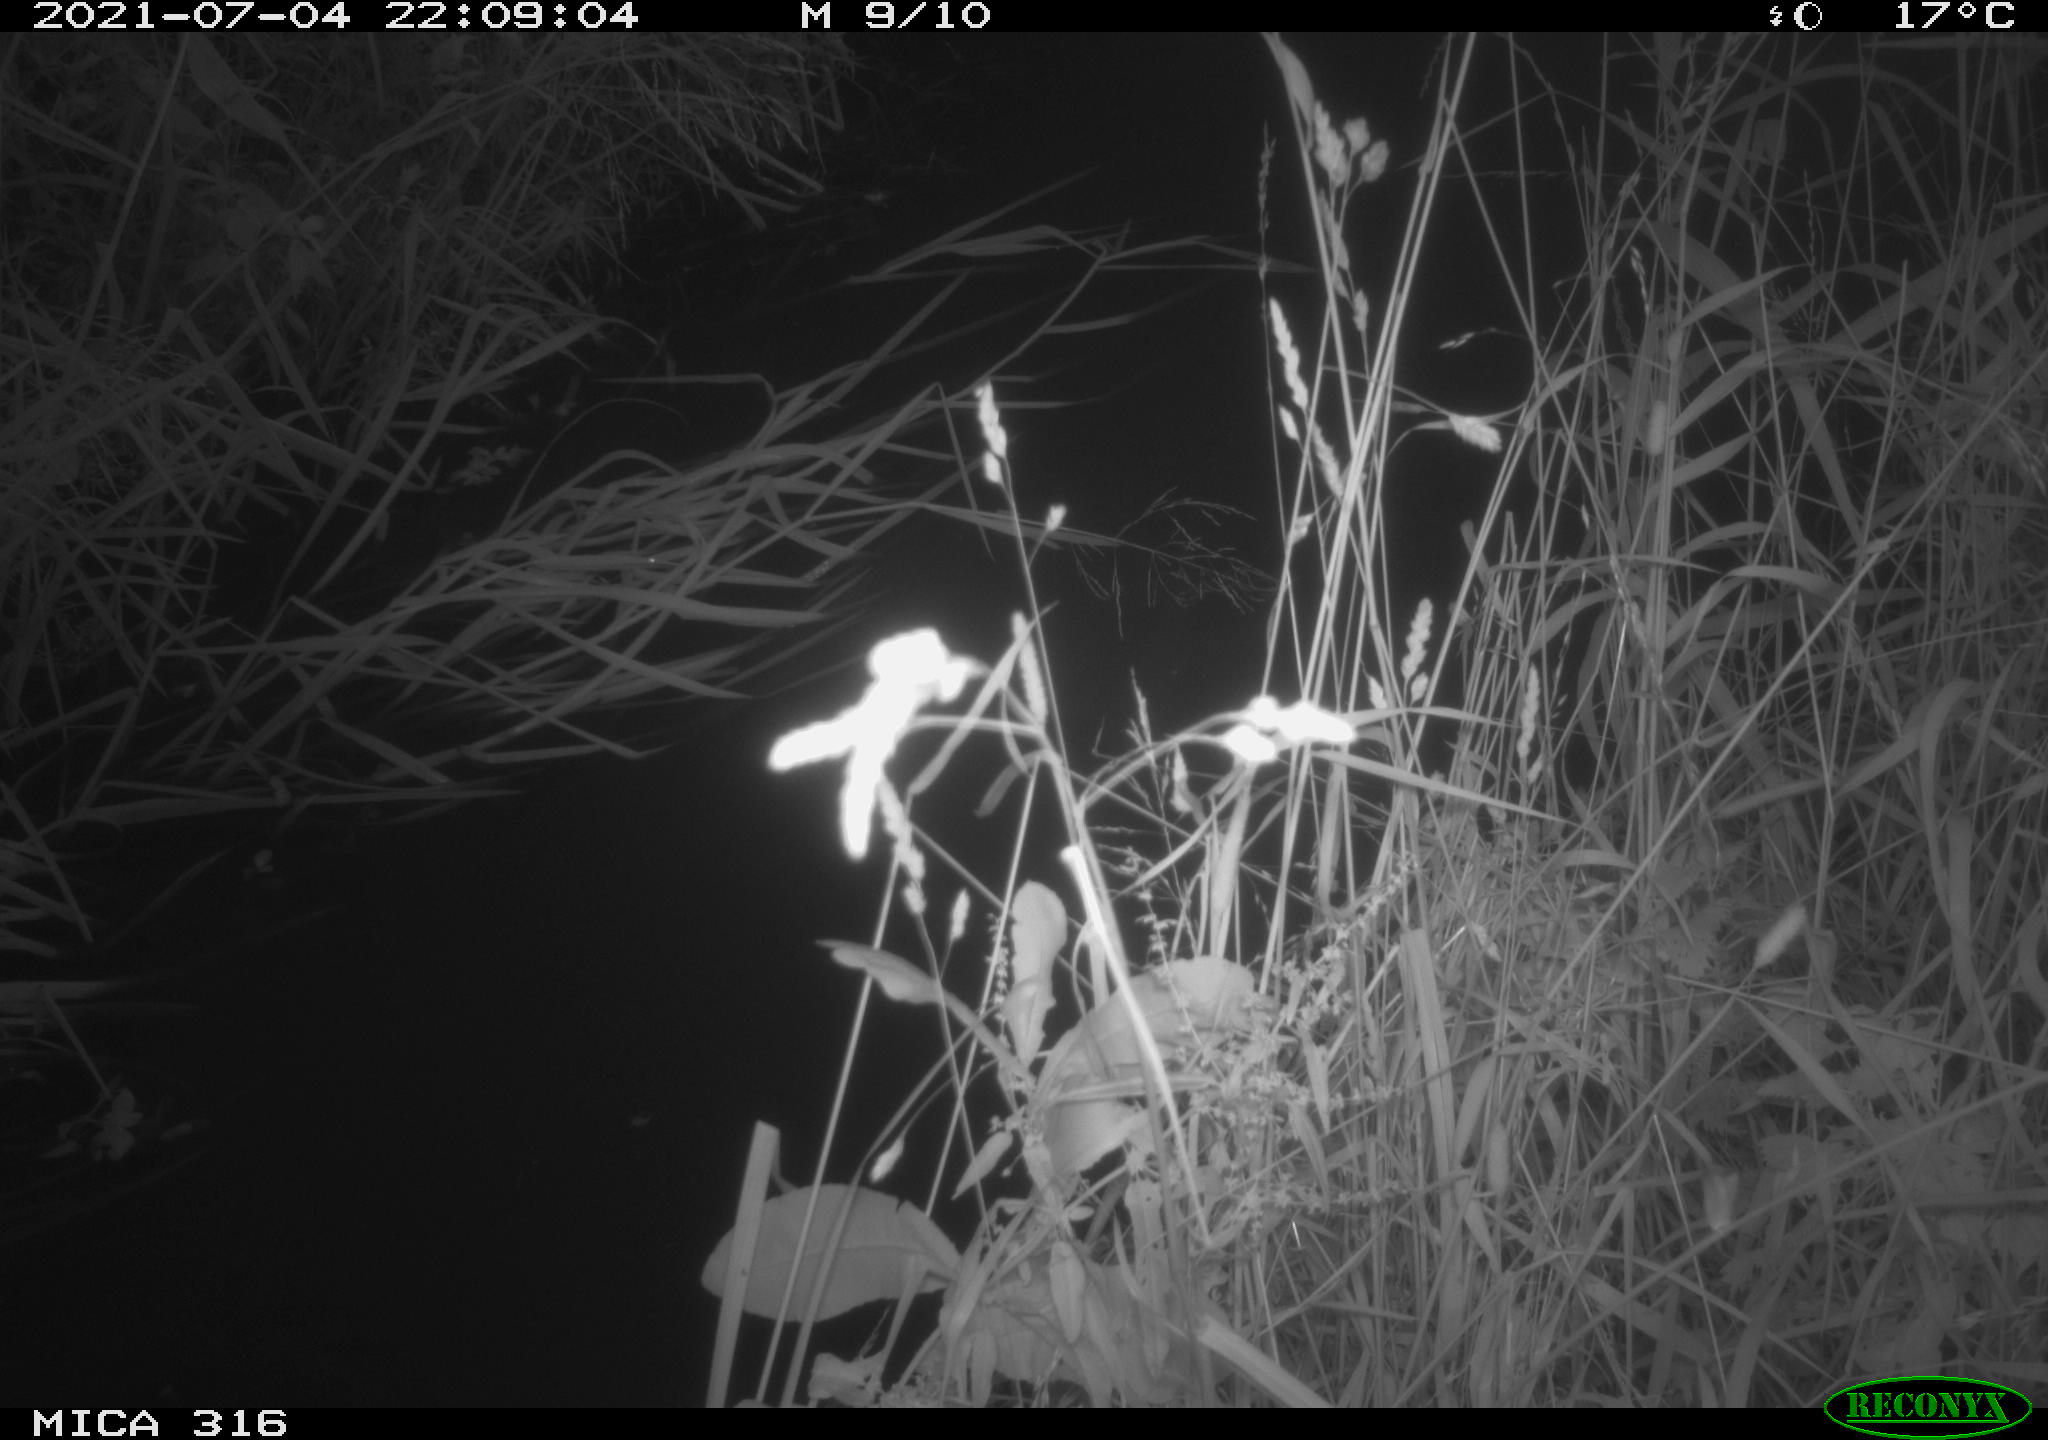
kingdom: Animalia
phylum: Chordata
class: Aves
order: Anseriformes
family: Anatidae
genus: Anas
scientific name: Anas platyrhynchos
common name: Mallard
